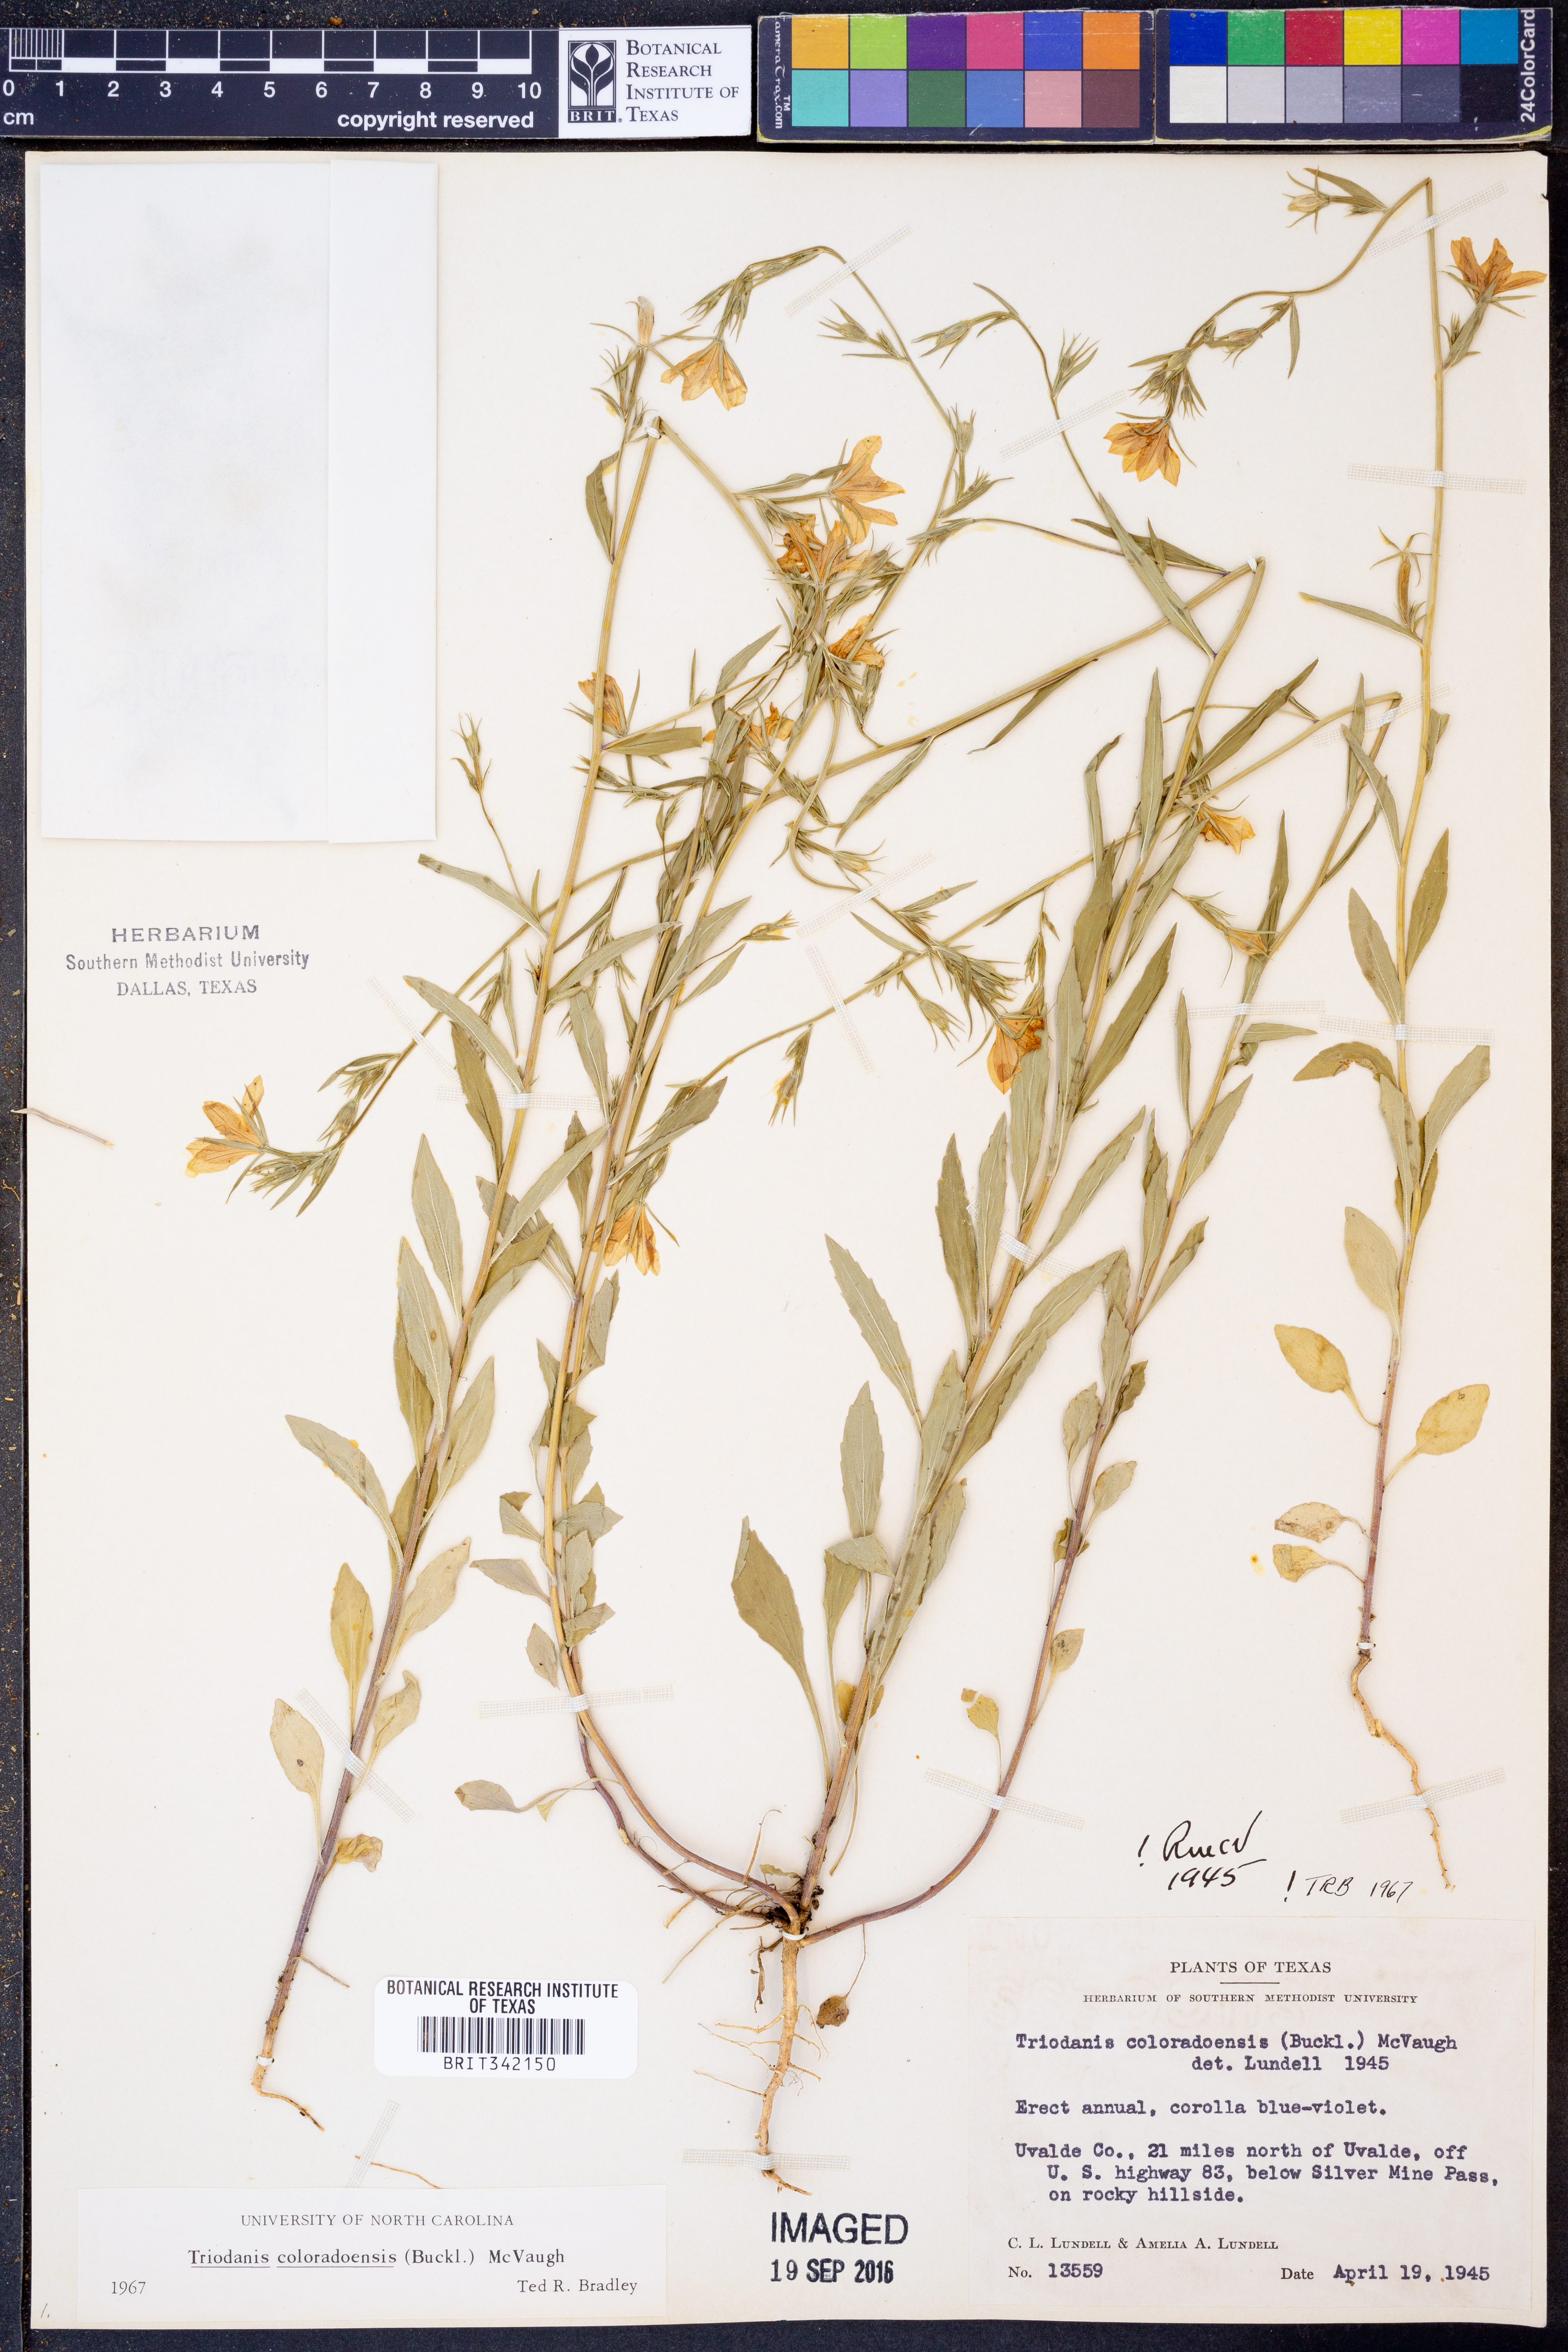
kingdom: Plantae
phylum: Tracheophyta
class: Magnoliopsida
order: Asterales
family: Campanulaceae
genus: Triodanis
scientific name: Triodanis coloradoensis
